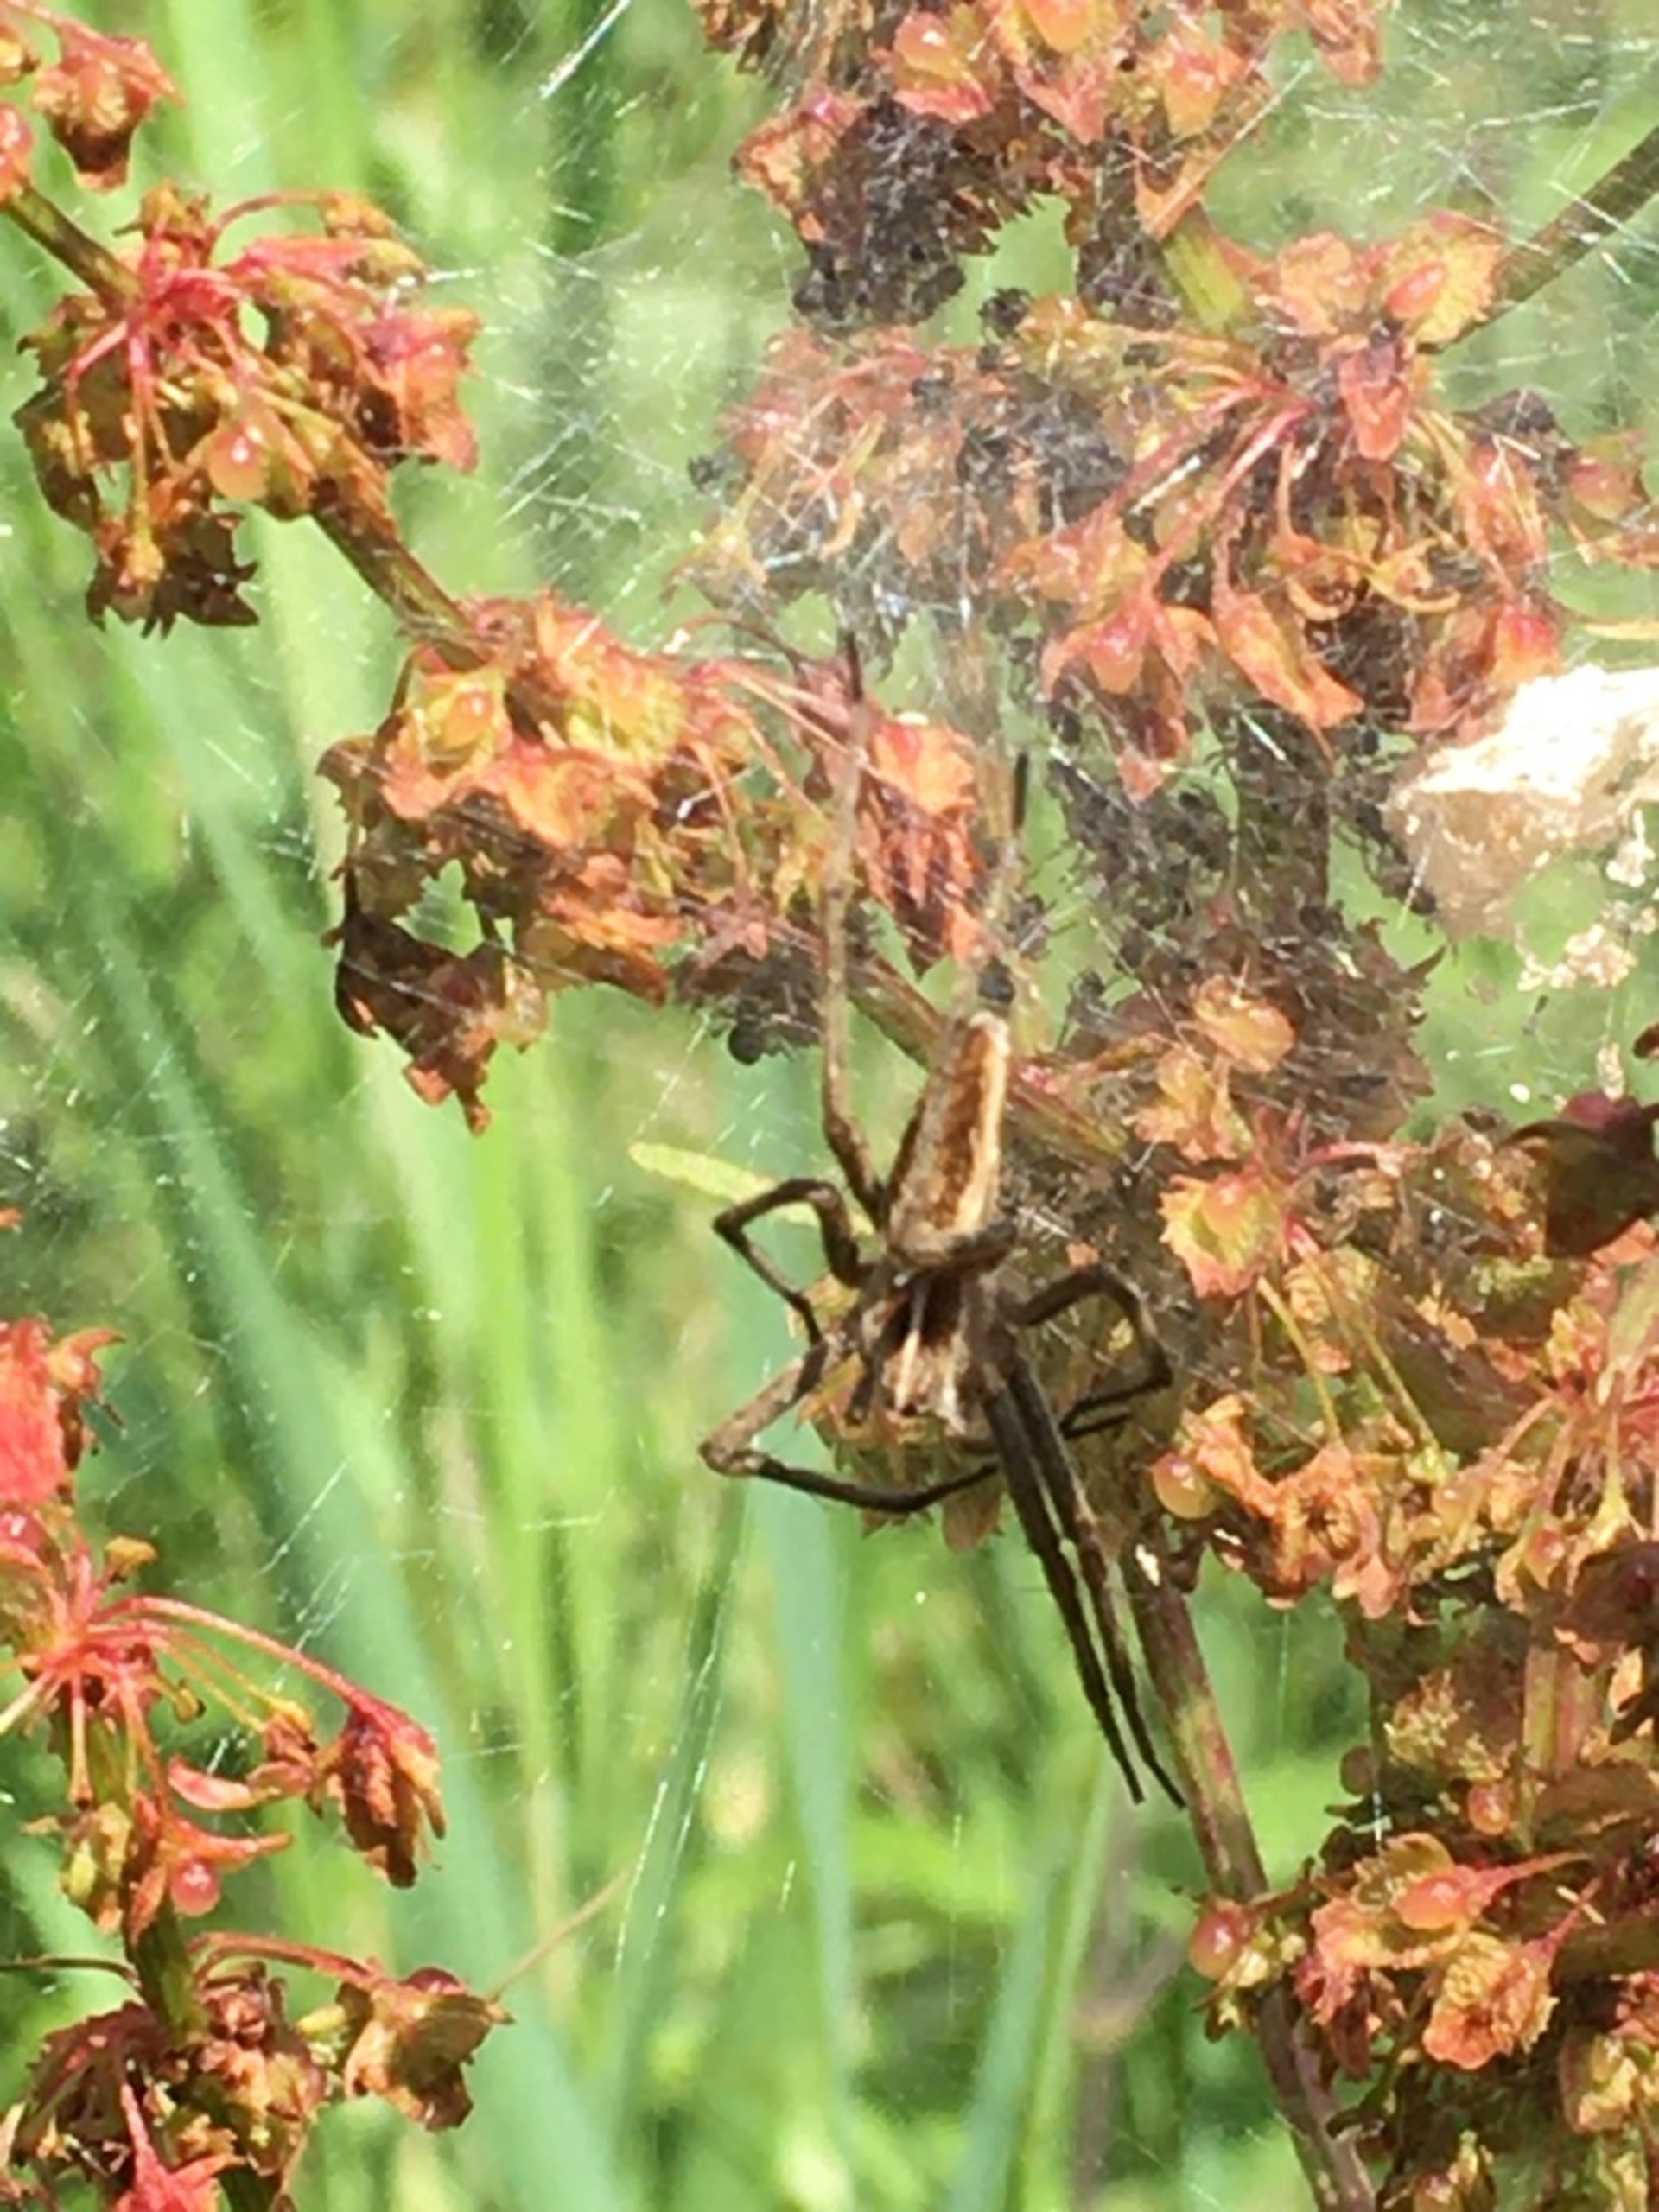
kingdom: Animalia
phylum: Arthropoda
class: Arachnida
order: Araneae
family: Pisauridae
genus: Pisaura
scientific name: Pisaura mirabilis
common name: Almindelig rovedderkop
